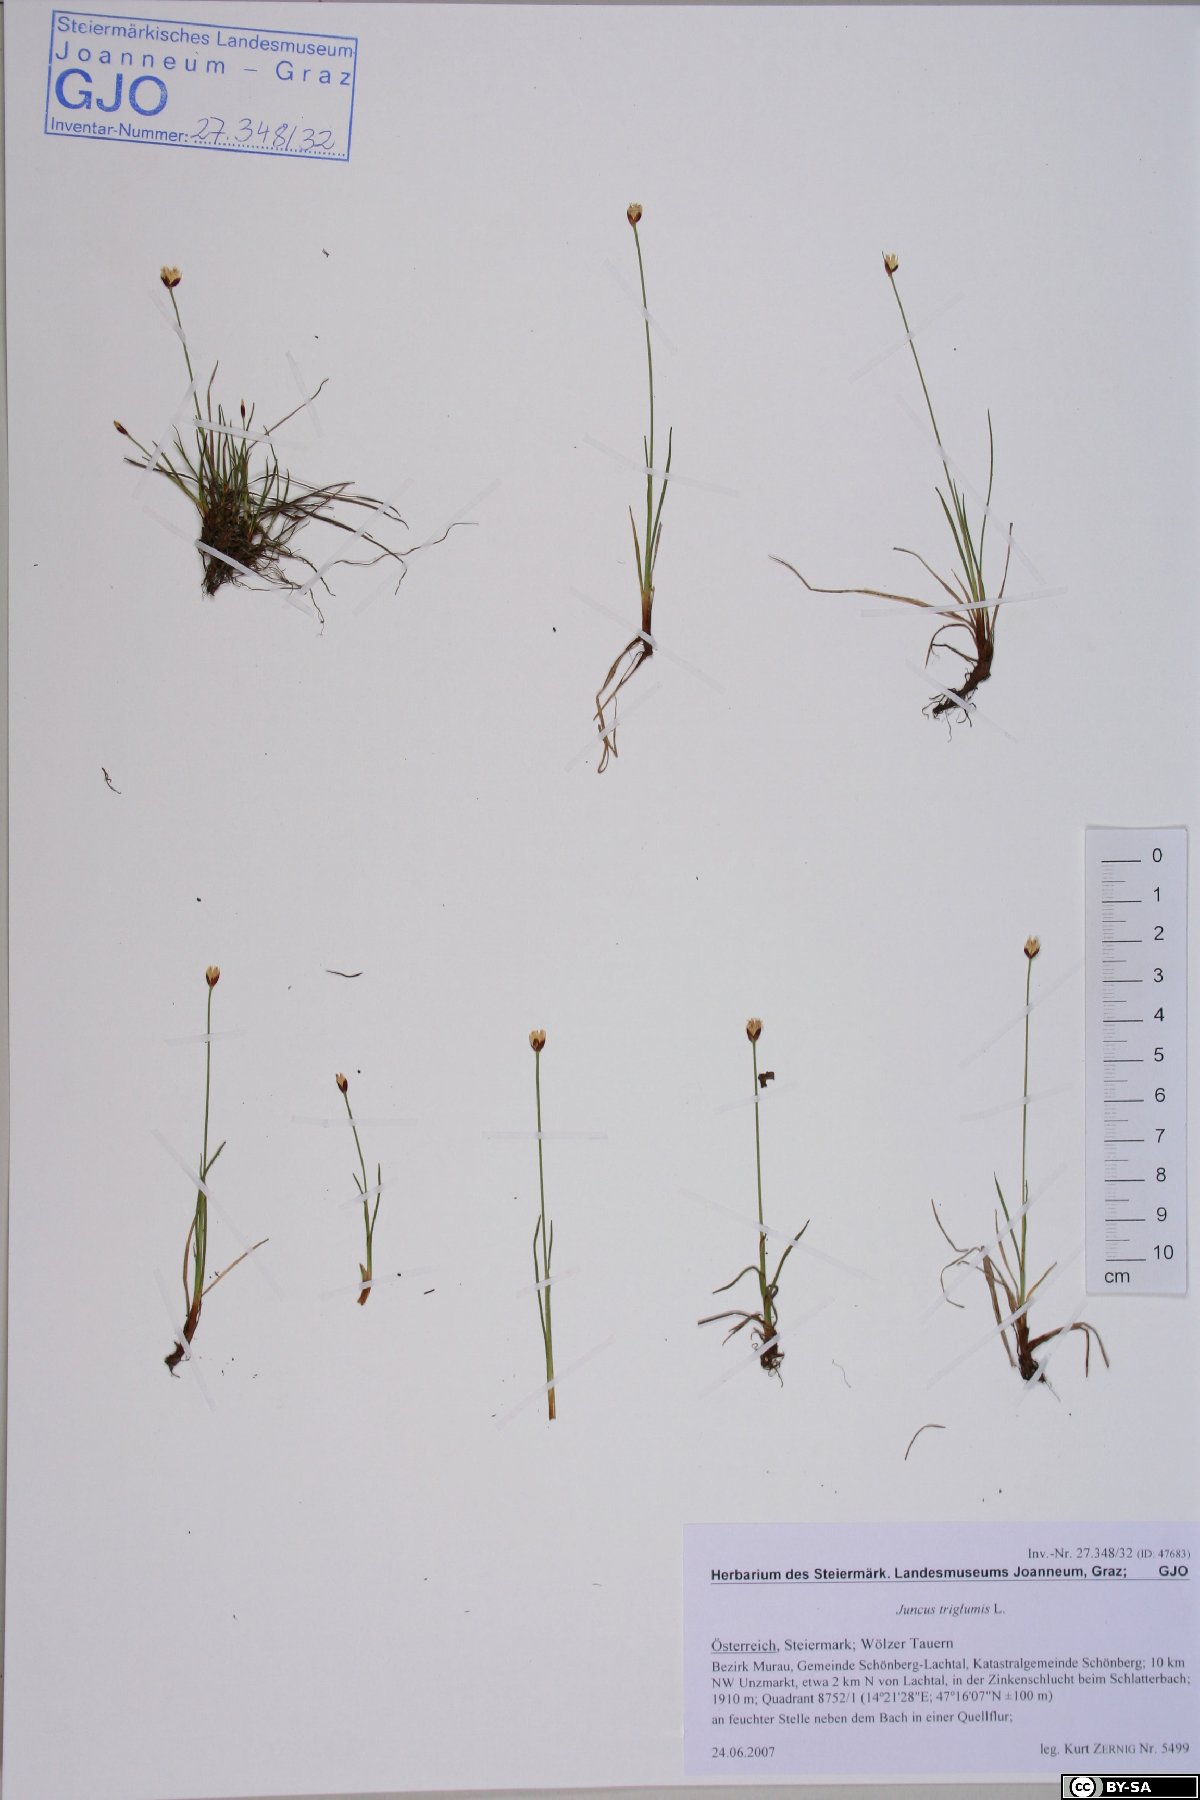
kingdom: Plantae
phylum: Tracheophyta
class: Liliopsida
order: Poales
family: Juncaceae
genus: Juncus
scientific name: Juncus triglumis
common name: Three-flowered rush
